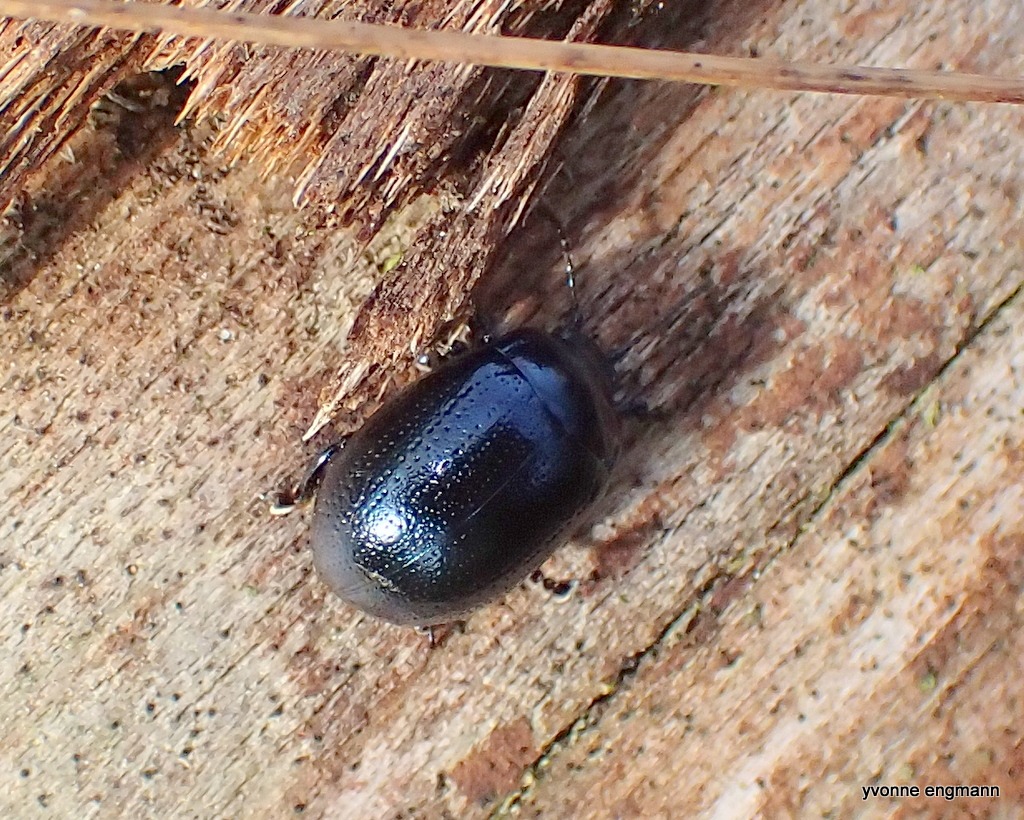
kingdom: Animalia
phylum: Arthropoda
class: Insecta
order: Coleoptera
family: Chrysomelidae
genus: Chrysolina
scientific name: Chrysolina geminata
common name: Perikonbladbille
